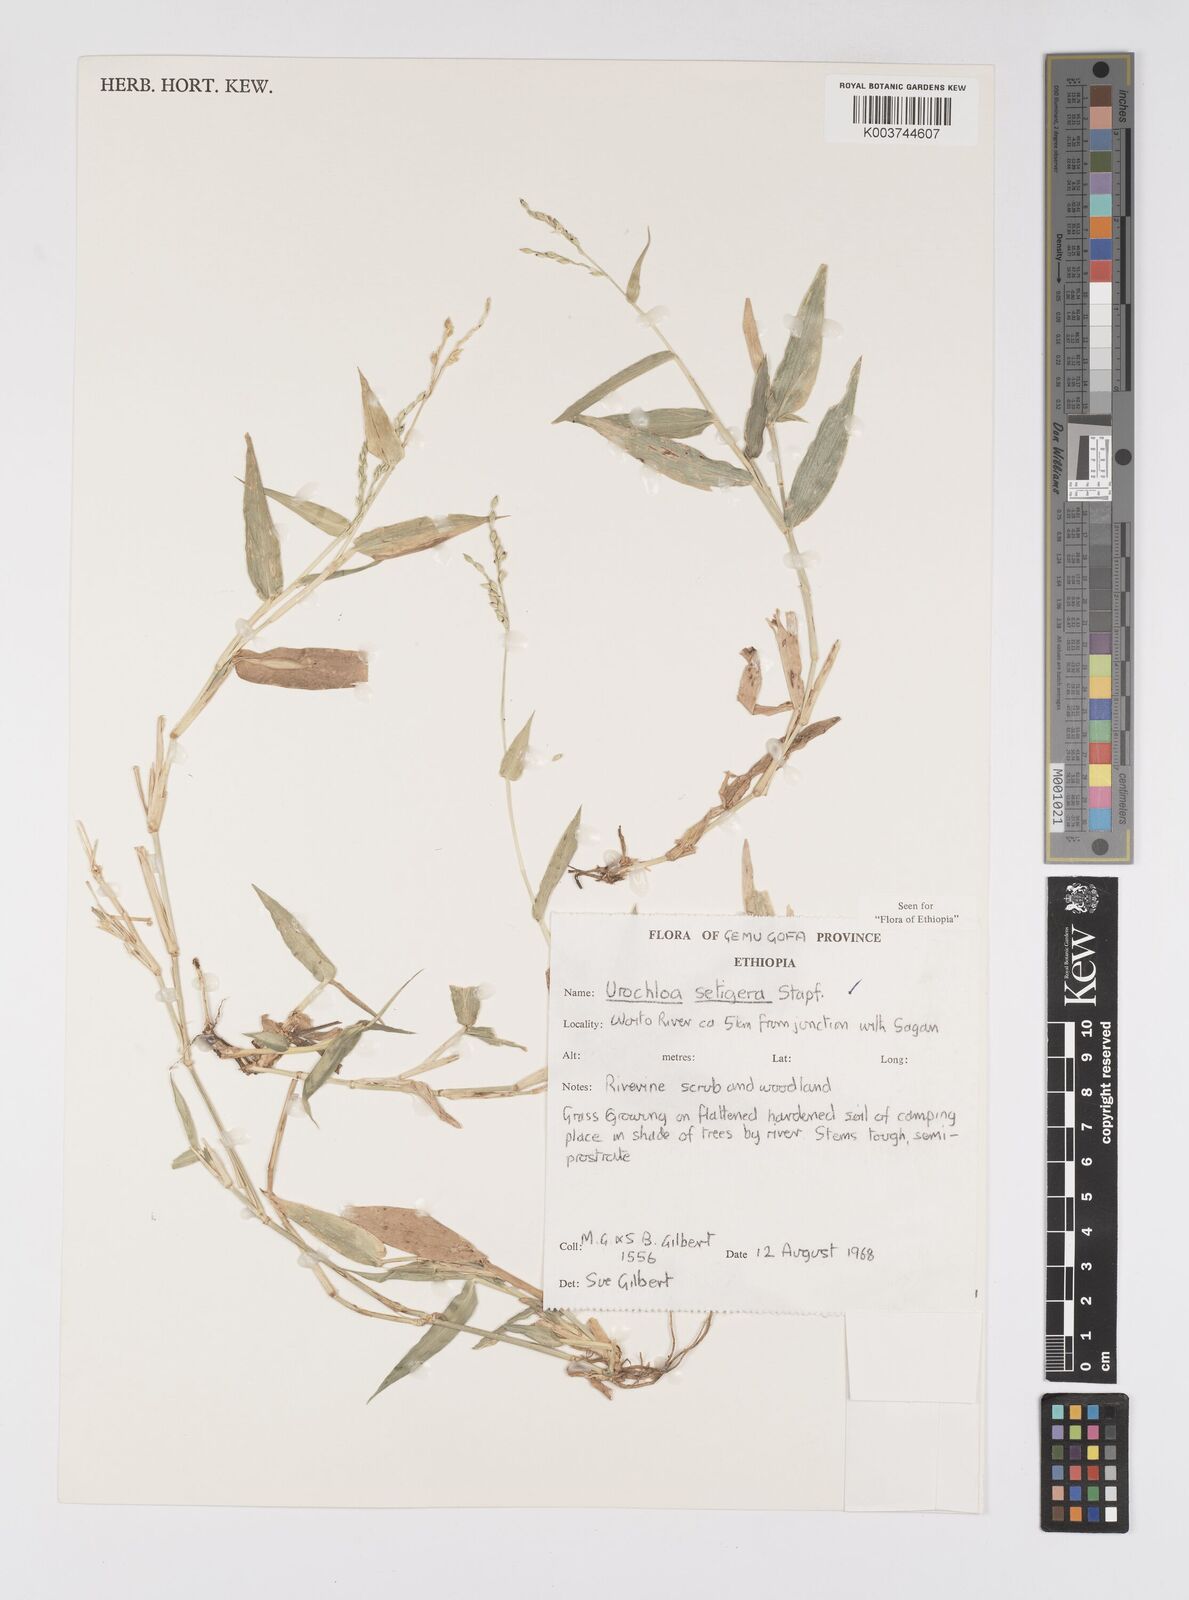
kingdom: Plantae
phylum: Tracheophyta
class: Liliopsida
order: Poales
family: Poaceae
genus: Urochloa
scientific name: Urochloa trichopodioides
